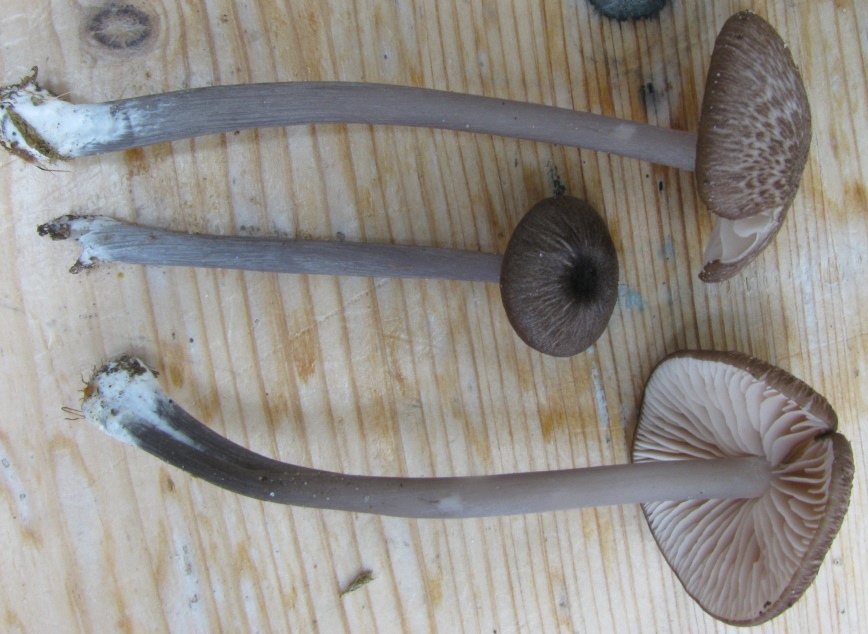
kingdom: Fungi
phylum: Basidiomycota
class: Agaricomycetes
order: Agaricales
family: Entolomataceae
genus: Entoloma
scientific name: Entoloma viiduense
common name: purpurbrun rødblad
